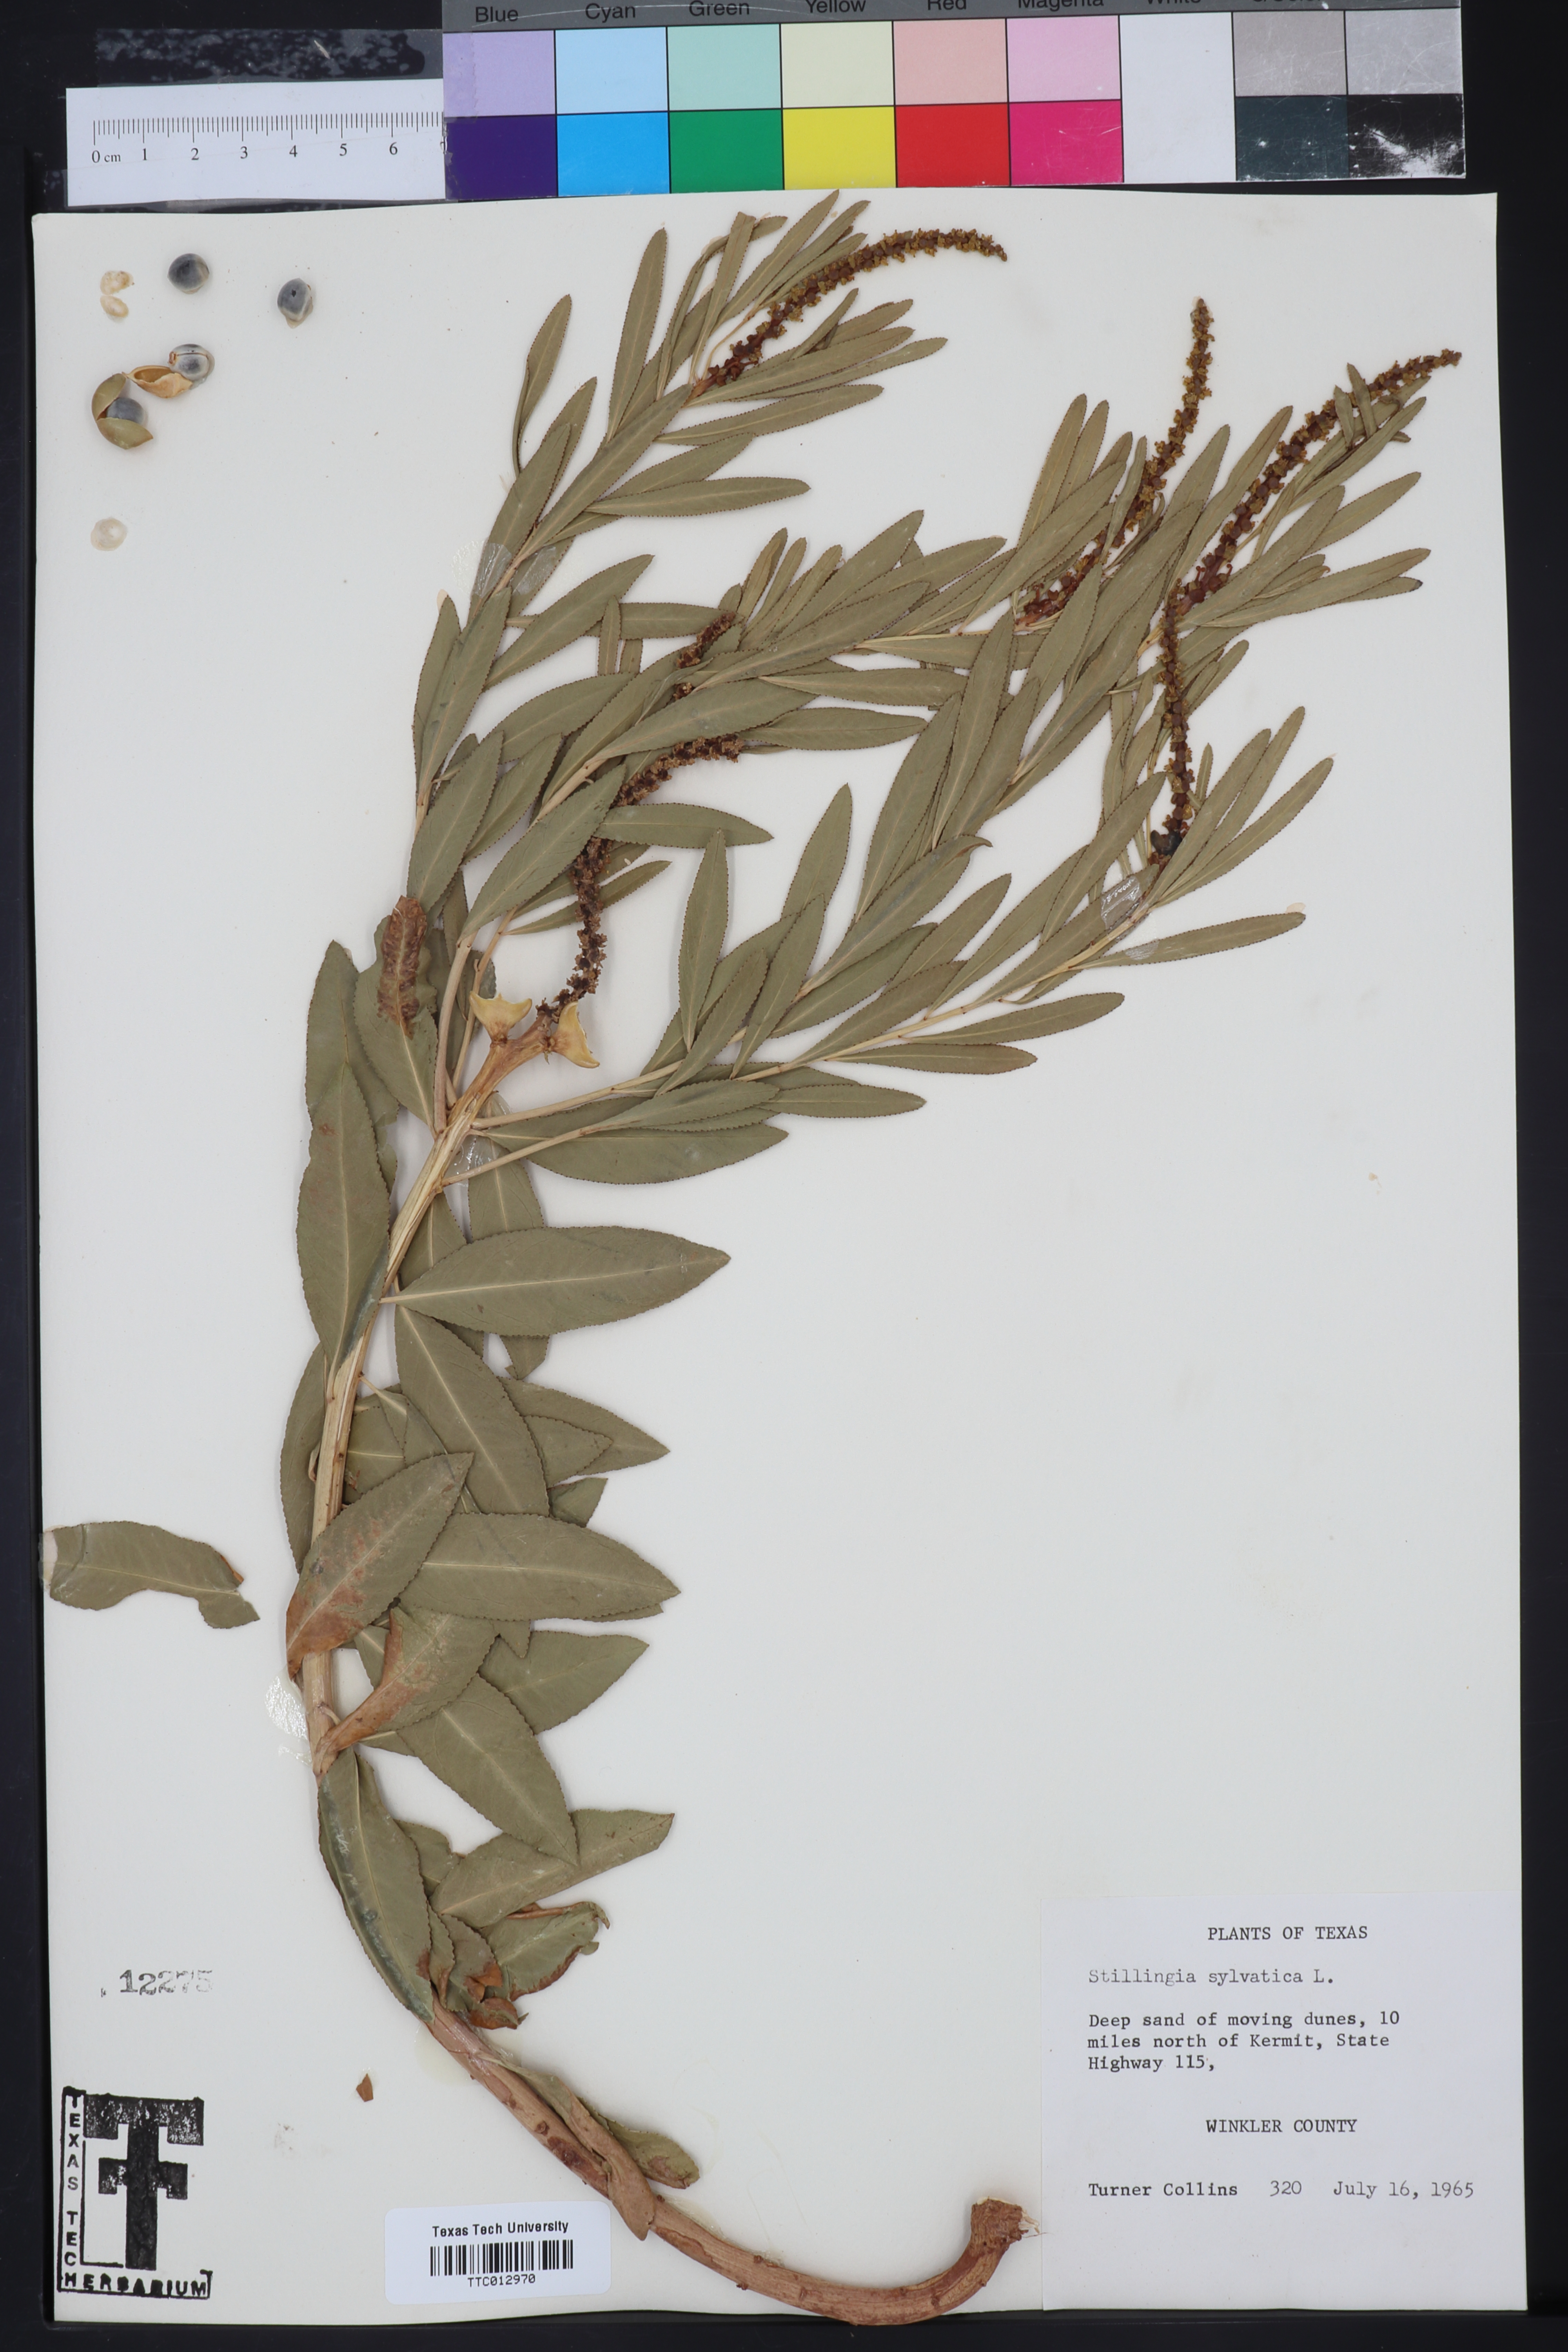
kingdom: Plantae
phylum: Tracheophyta
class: Magnoliopsida
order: Malpighiales
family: Euphorbiaceae
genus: Stillingia
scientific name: Stillingia sylvatica
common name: Queen's-delight
